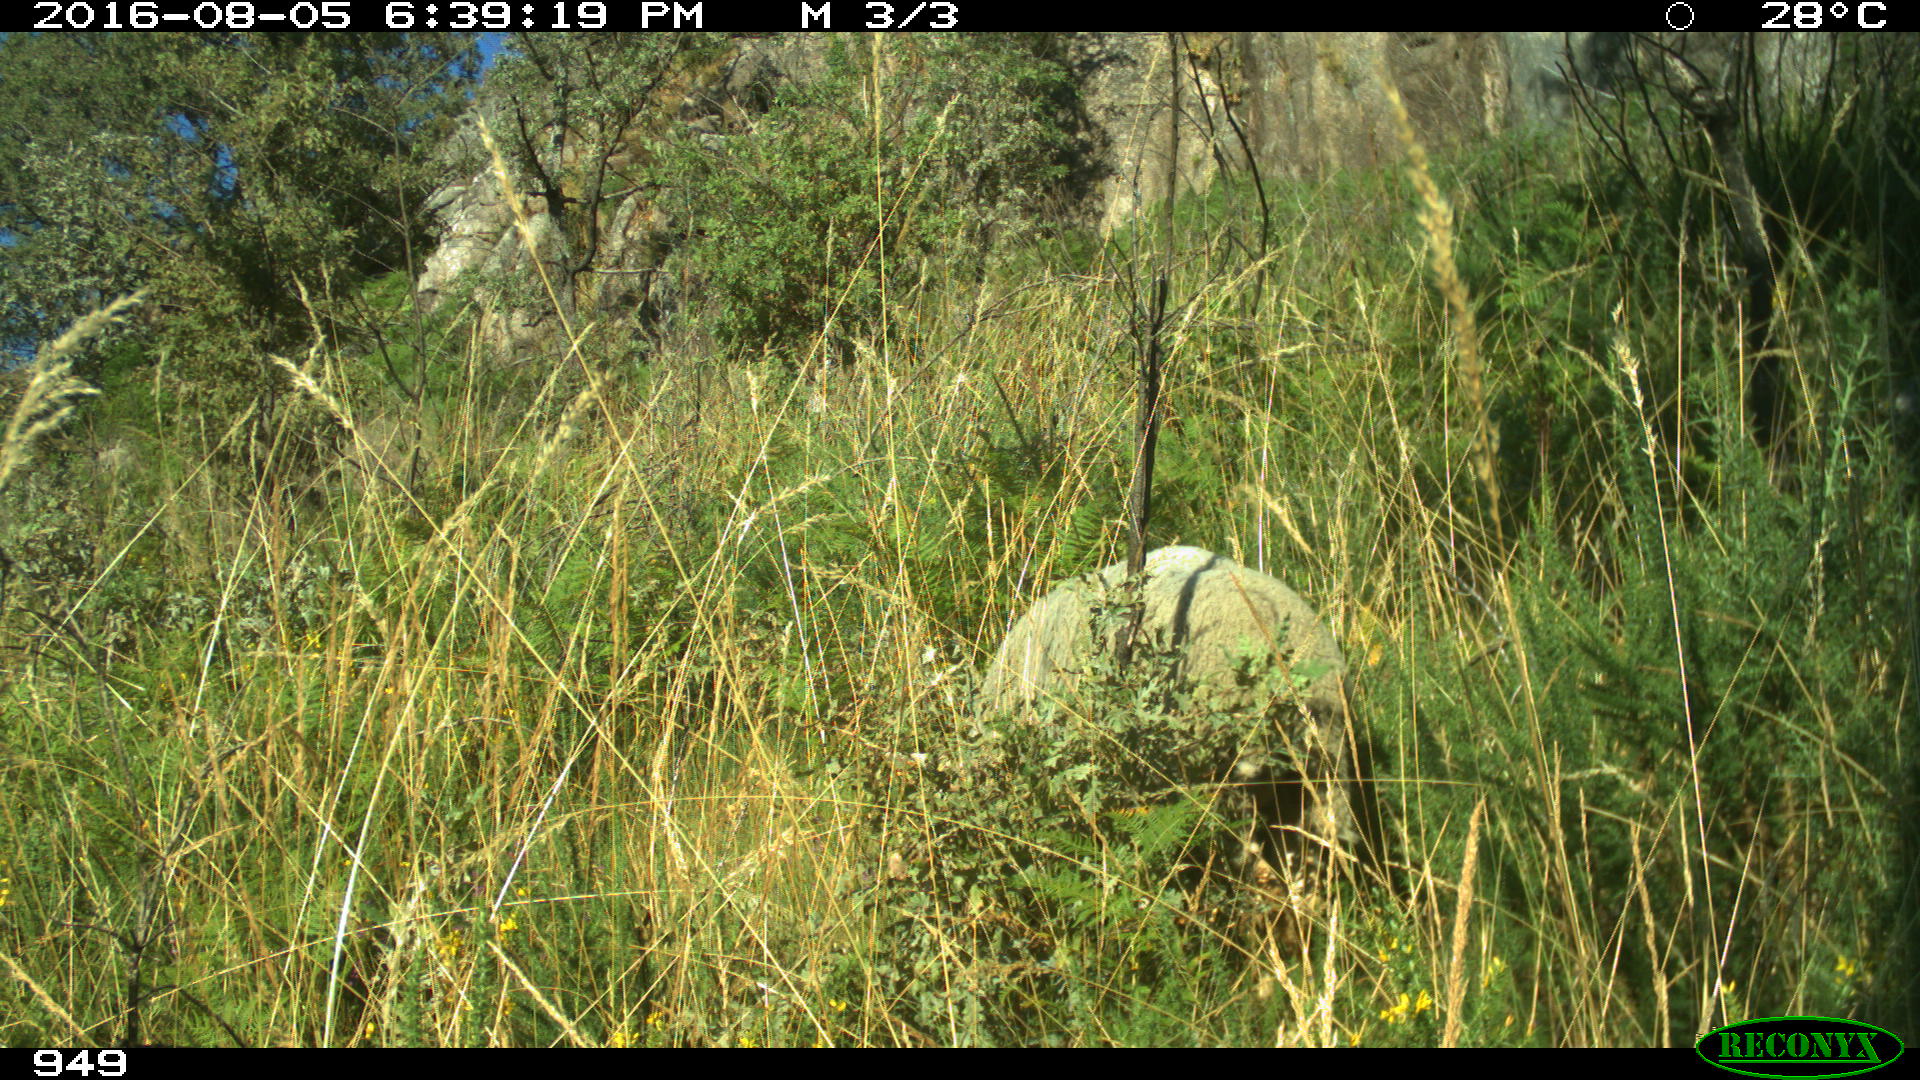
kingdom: Animalia
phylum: Chordata
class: Mammalia
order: Artiodactyla
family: Bovidae
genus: Ovis
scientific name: Ovis aries
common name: Domestic sheep
